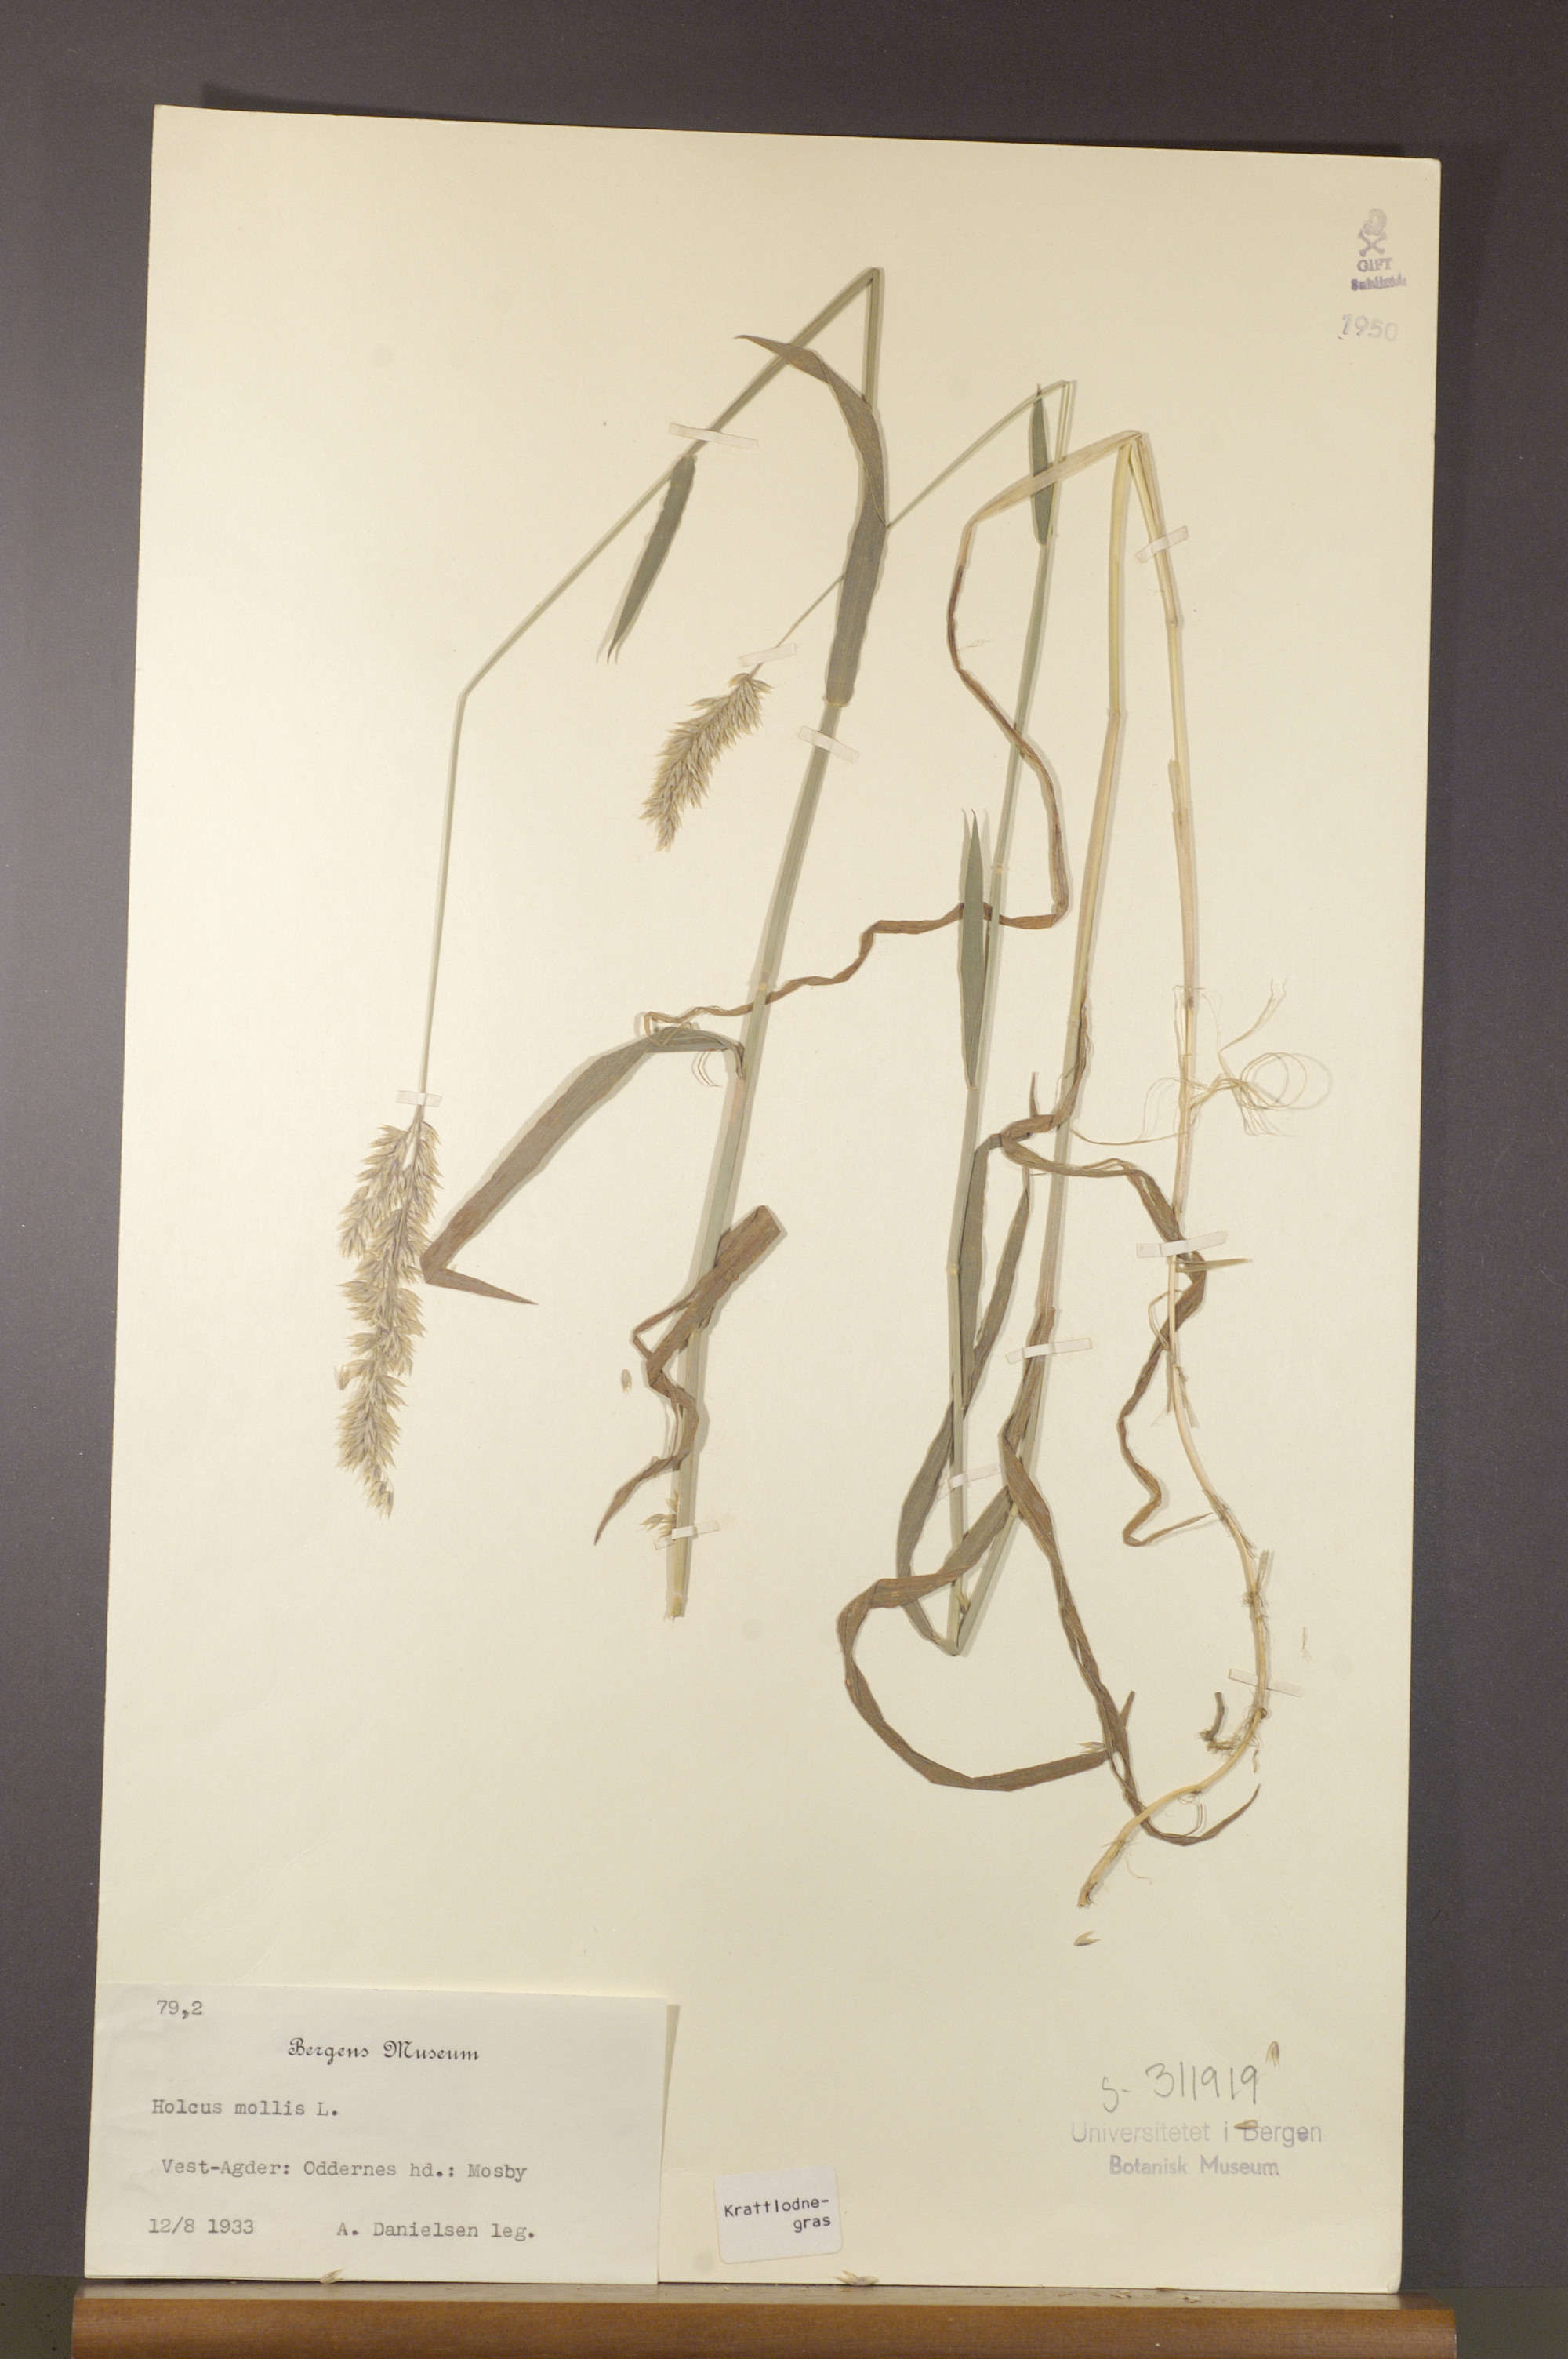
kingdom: Plantae
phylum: Tracheophyta
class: Liliopsida
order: Poales
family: Poaceae
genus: Holcus
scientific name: Holcus mollis
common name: Creeping velvetgrass
